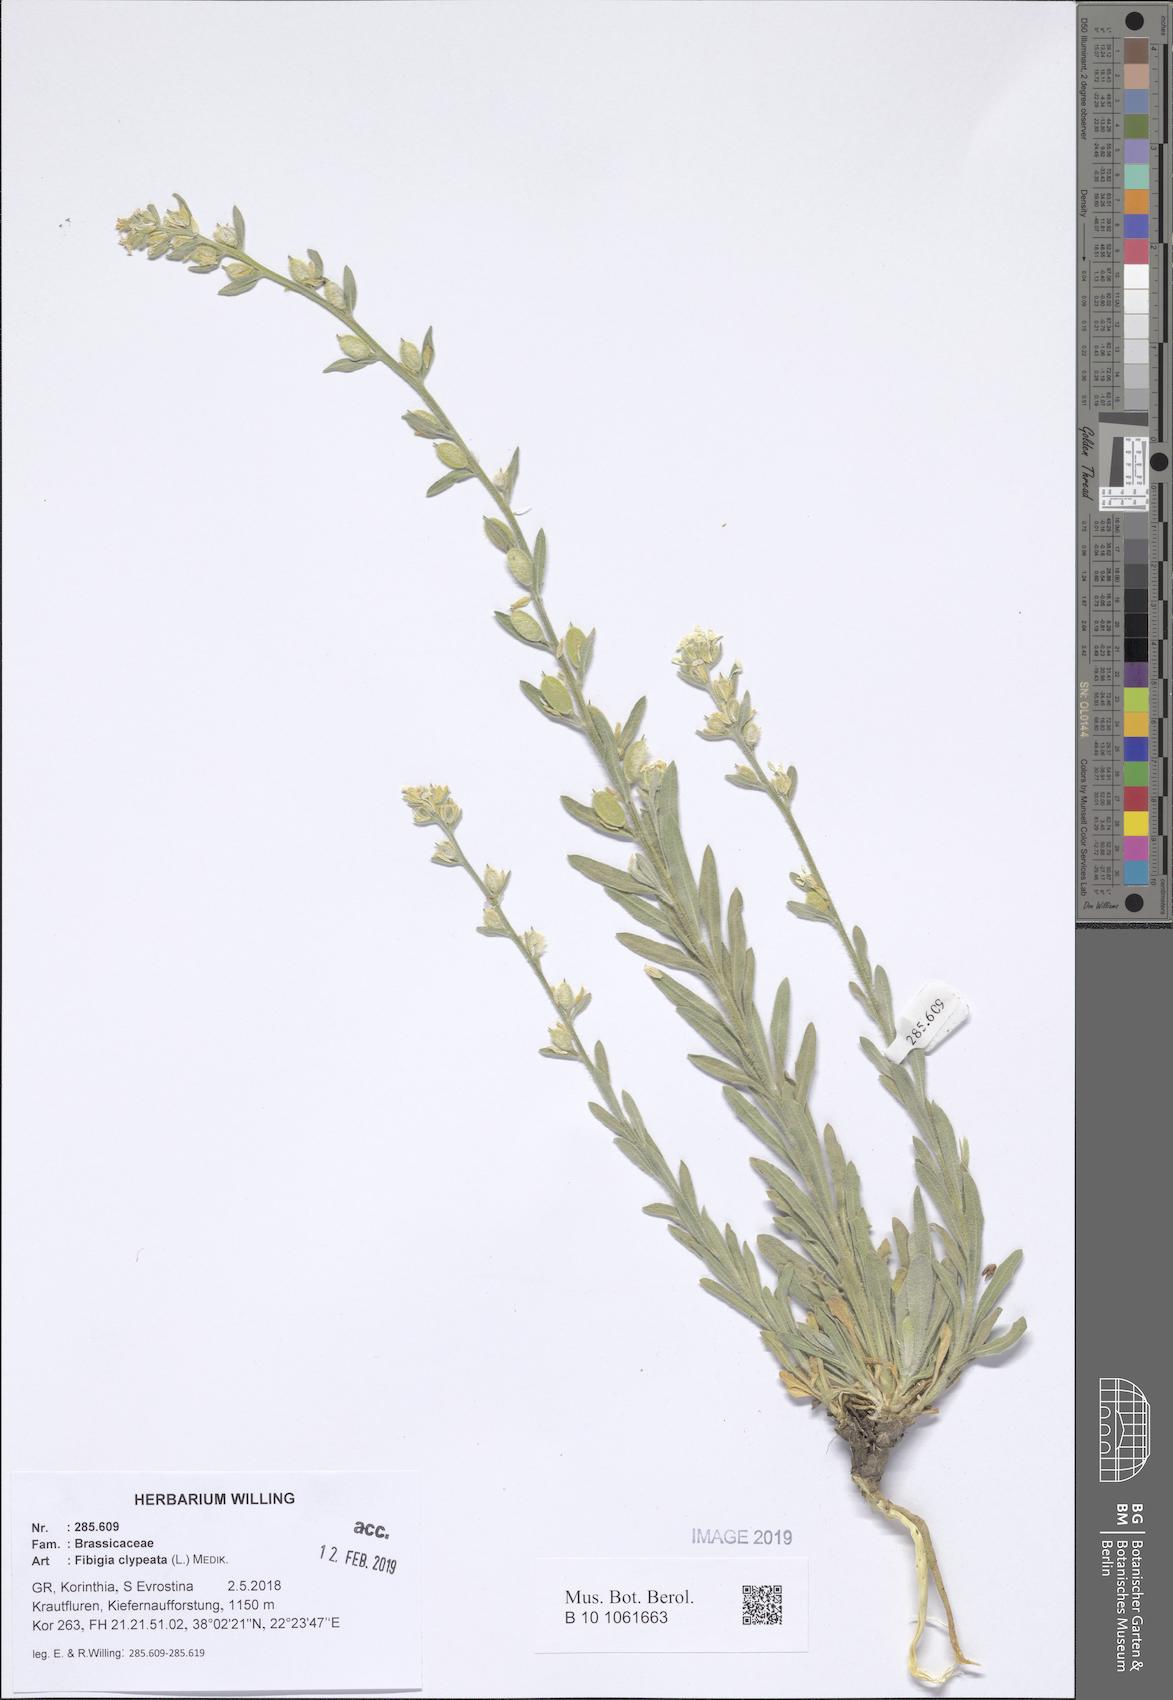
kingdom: Plantae
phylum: Tracheophyta
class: Magnoliopsida
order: Brassicales
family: Brassicaceae
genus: Fibigia
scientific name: Fibigia clypeata
